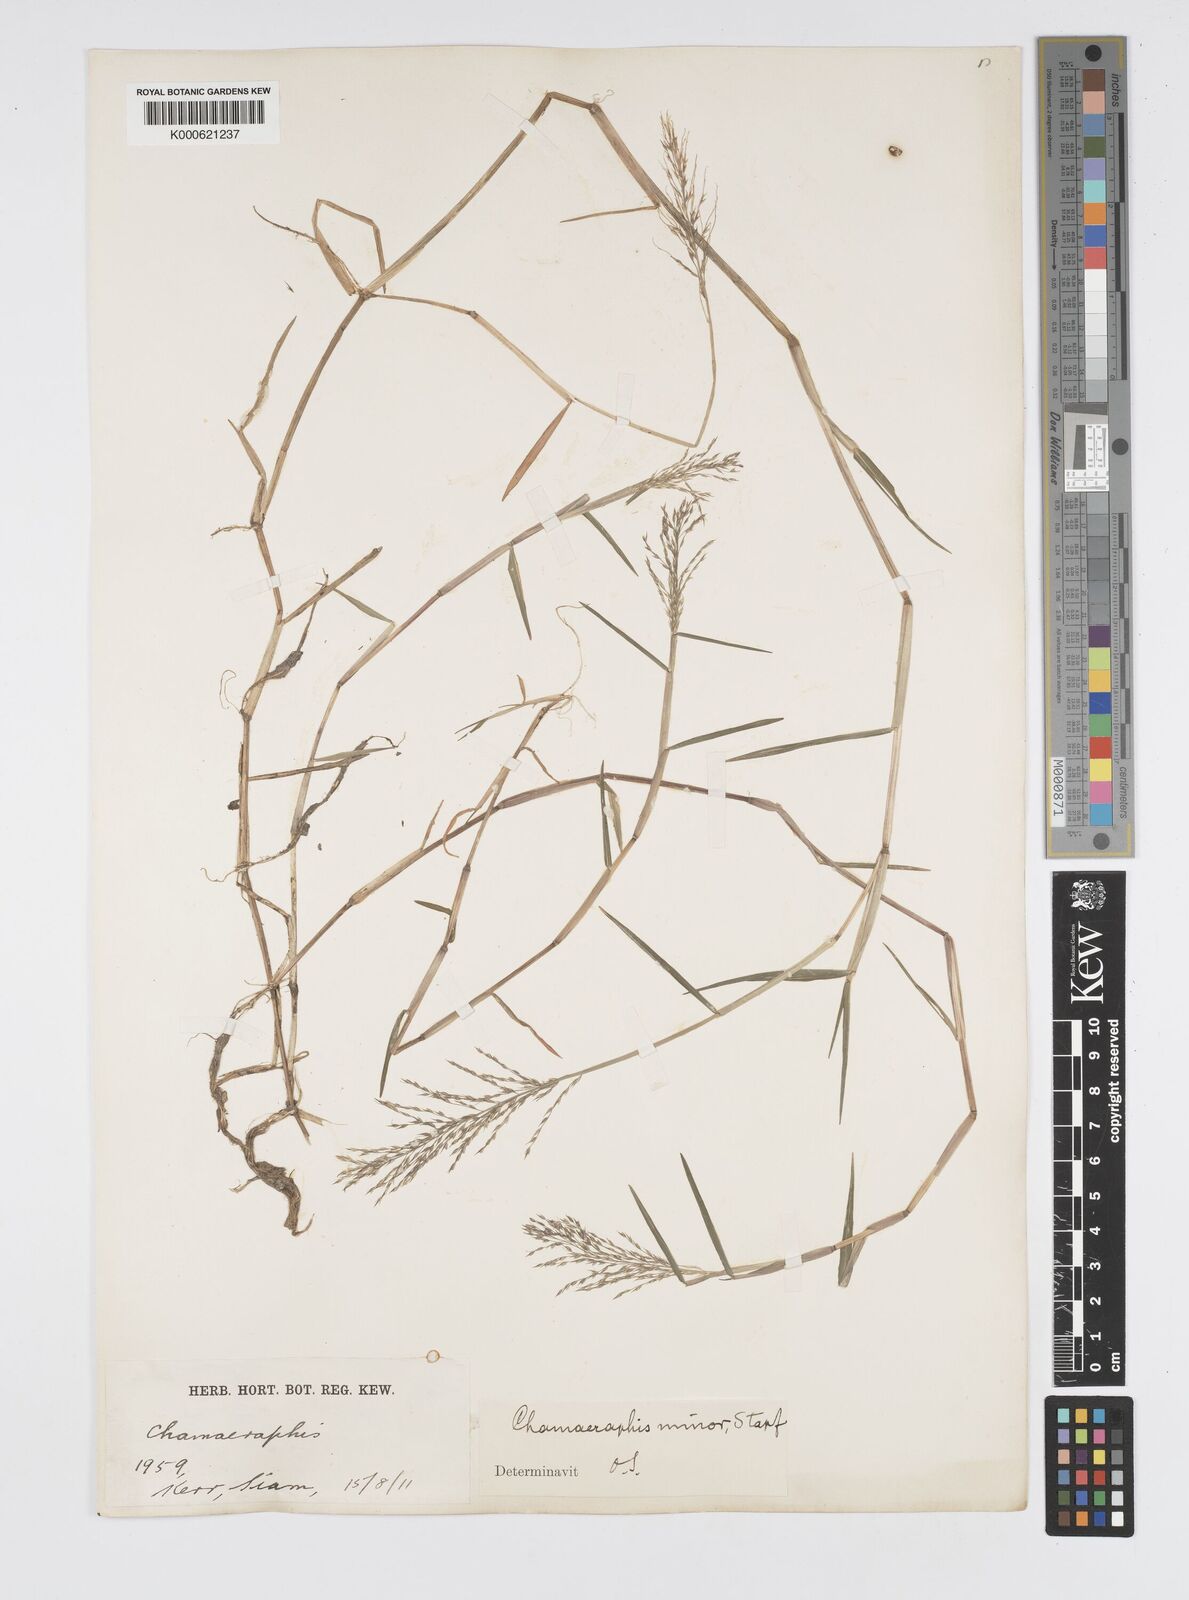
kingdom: Plantae
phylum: Tracheophyta
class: Liliopsida
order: Poales
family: Poaceae
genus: Pseudoraphis
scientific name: Pseudoraphis minuta
